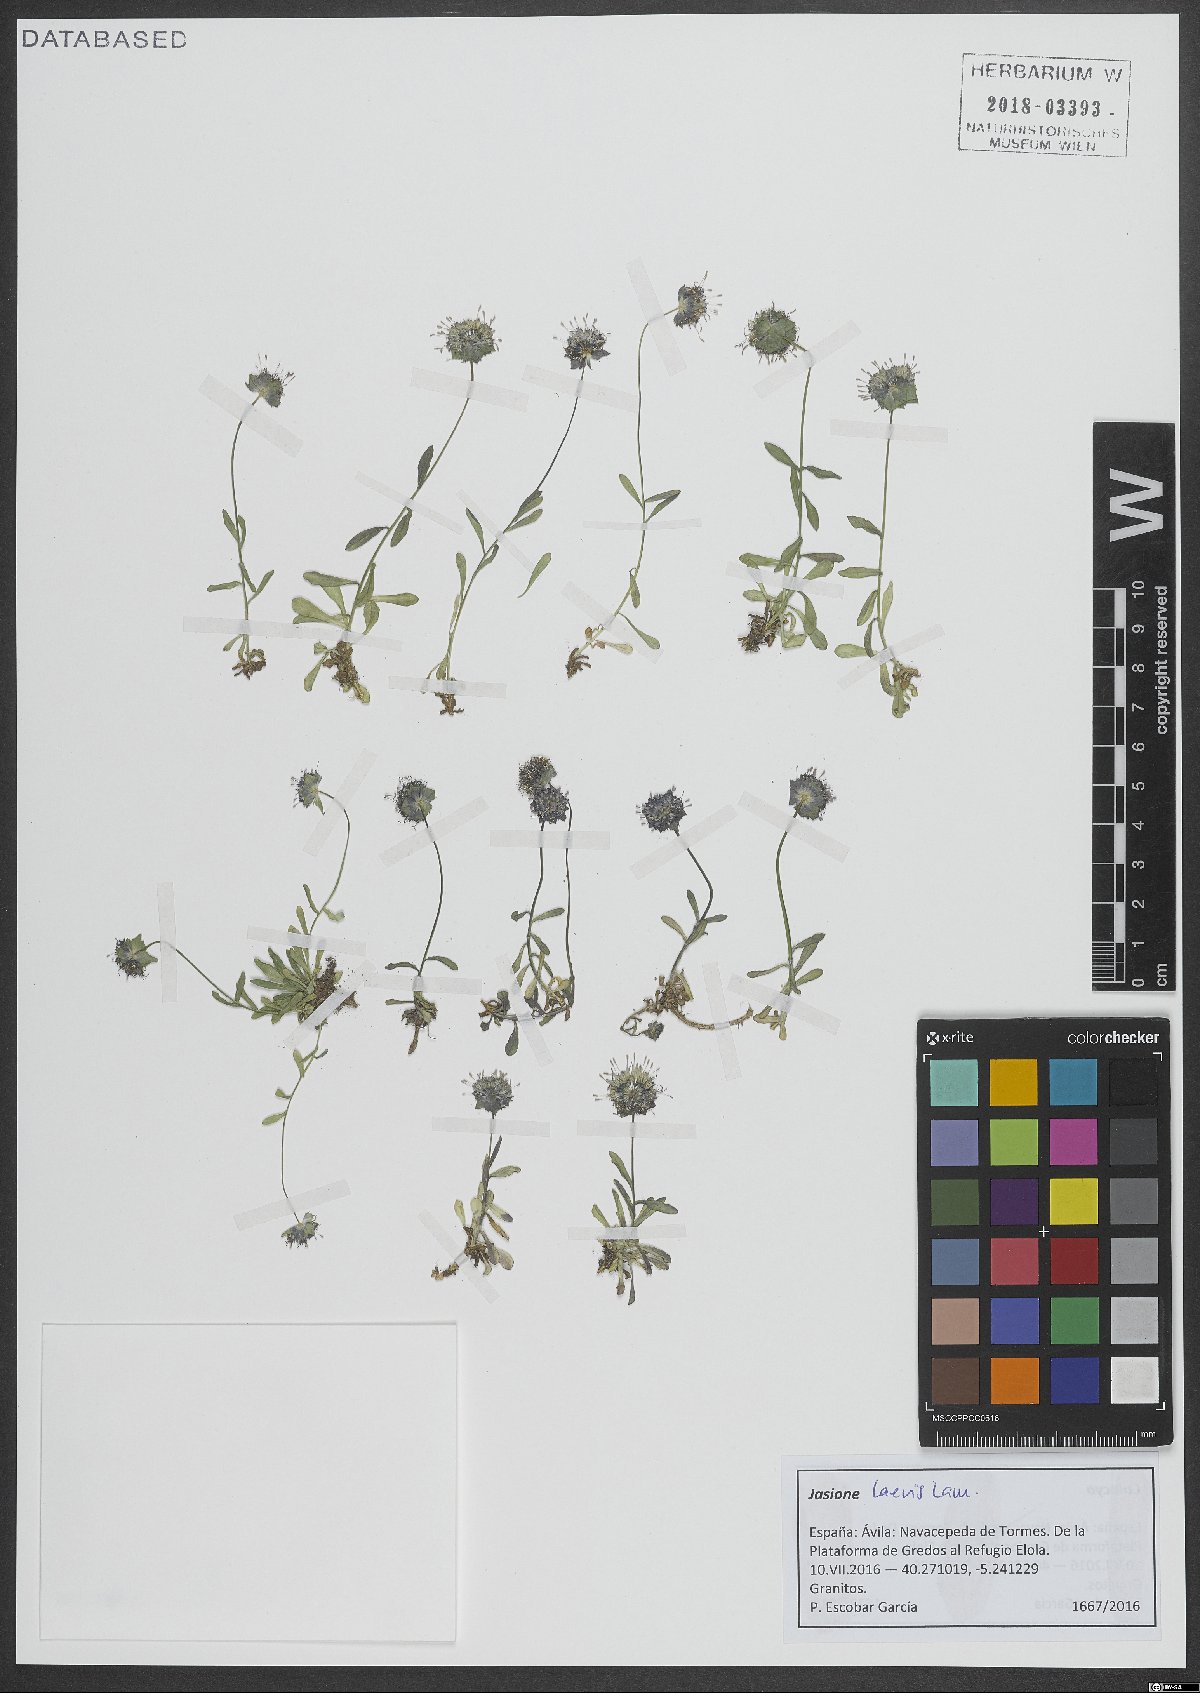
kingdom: Plantae
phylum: Tracheophyta
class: Magnoliopsida
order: Asterales
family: Campanulaceae
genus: Jasione
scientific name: Jasione laevis
